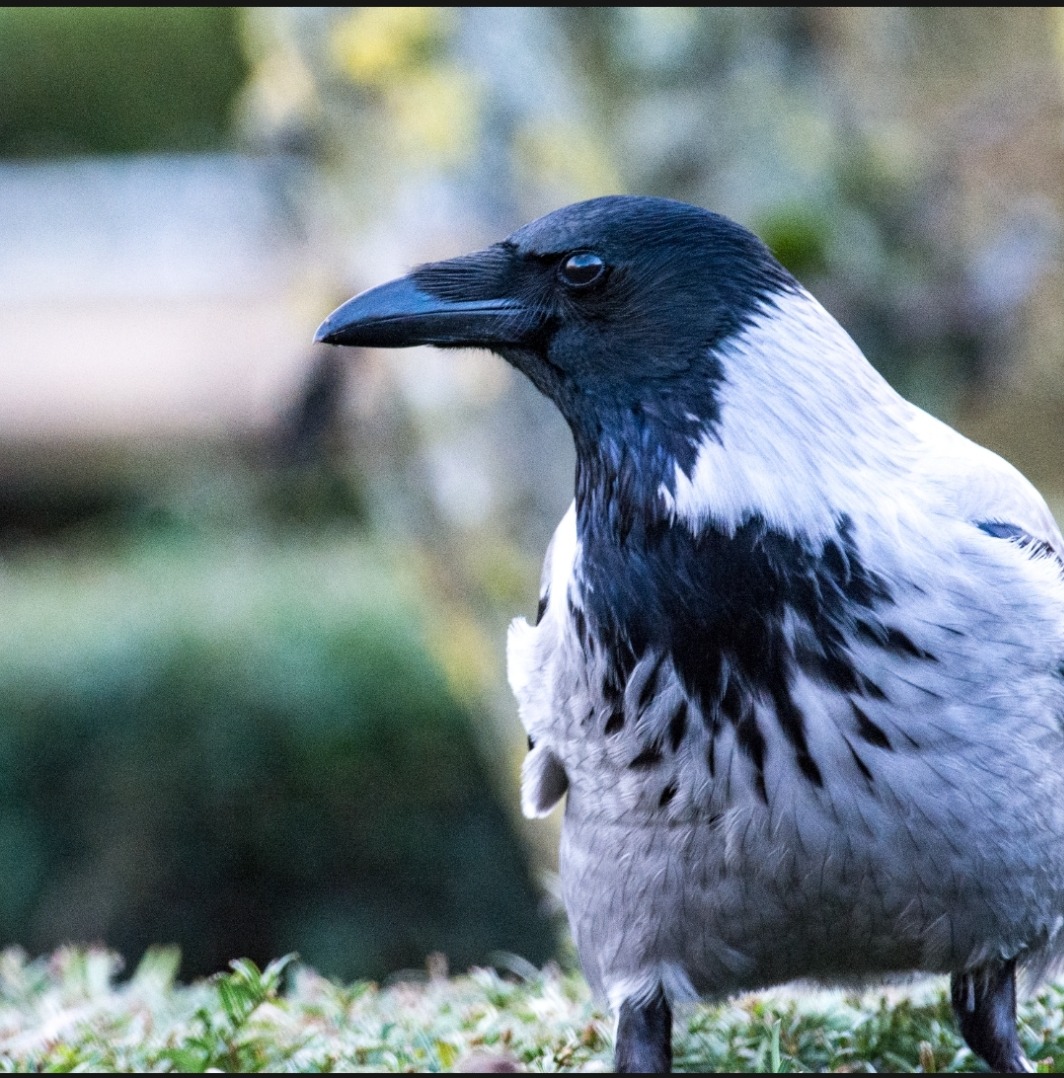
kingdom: Animalia
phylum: Chordata
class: Aves
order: Passeriformes
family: Corvidae
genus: Corvus
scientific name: Corvus cornix
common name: Gråkrage
